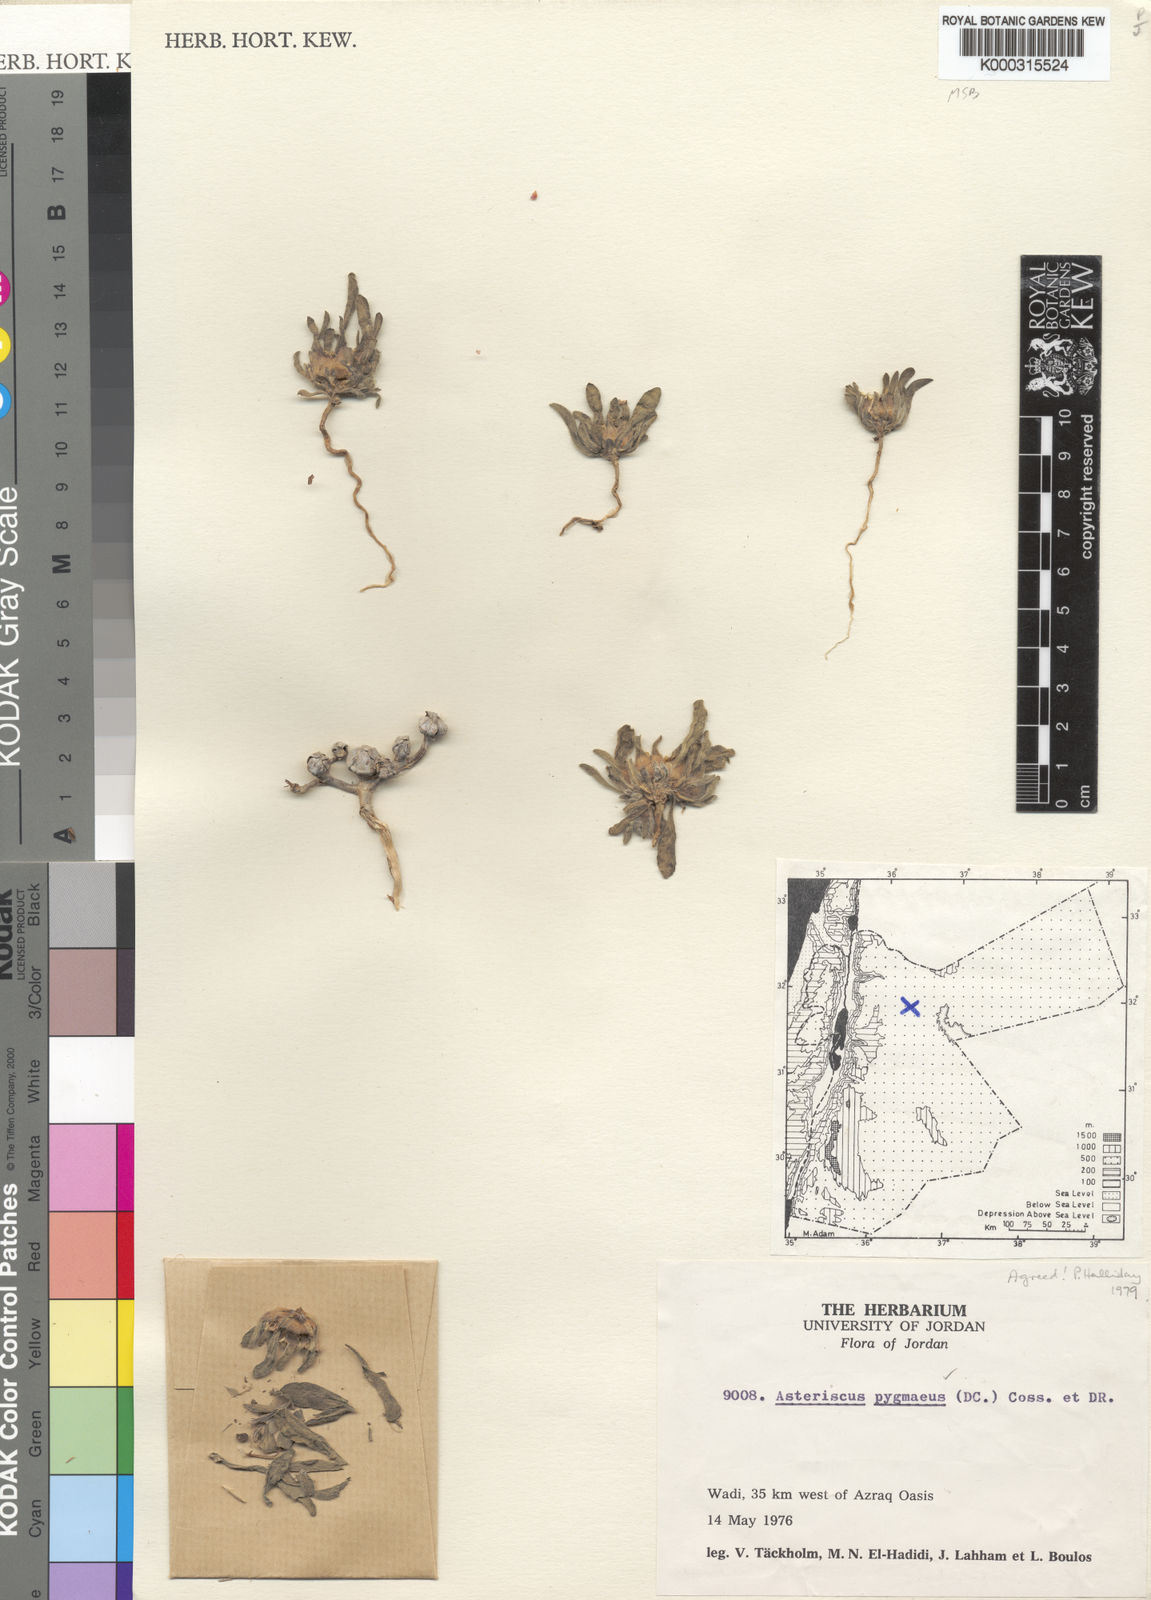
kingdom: Plantae
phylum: Tracheophyta
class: Magnoliopsida
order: Asterales
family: Asteraceae
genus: Pallenis
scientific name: Pallenis hierochuntica
